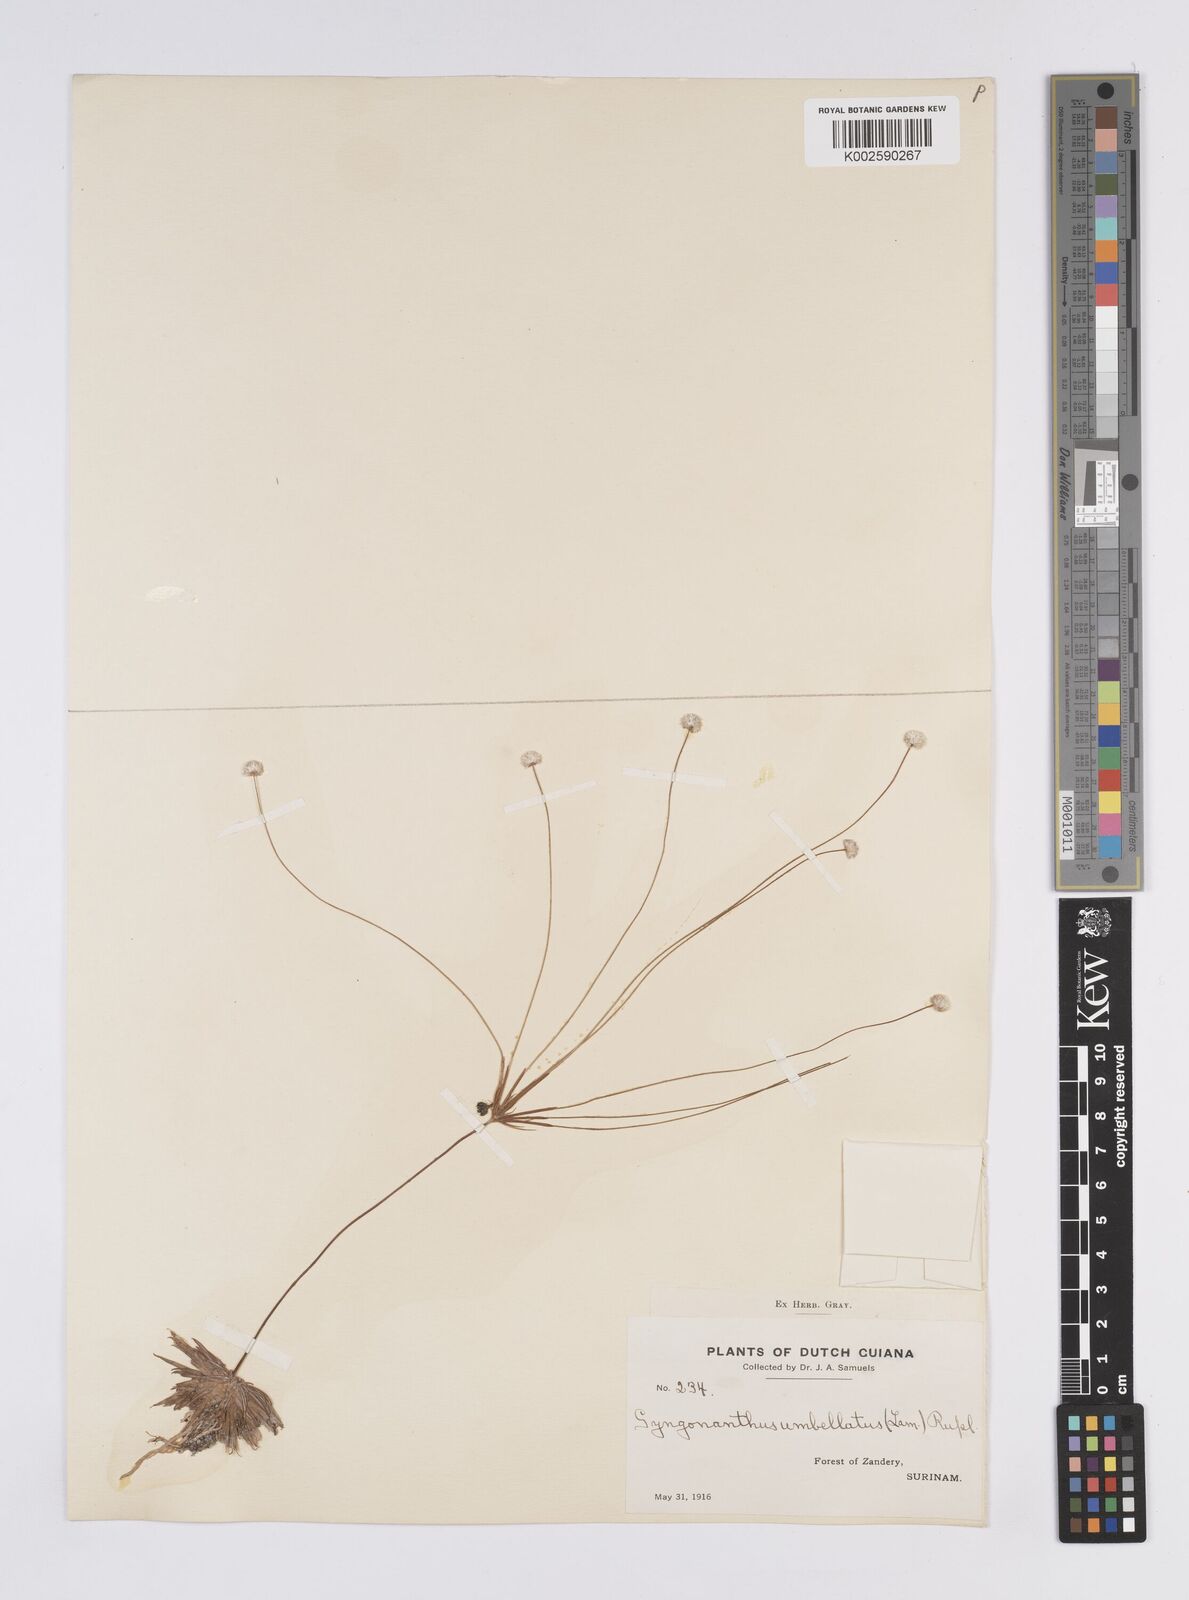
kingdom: Plantae
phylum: Tracheophyta
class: Liliopsida
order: Poales
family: Eriocaulaceae
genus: Syngonanthus
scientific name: Syngonanthus umbellatus
